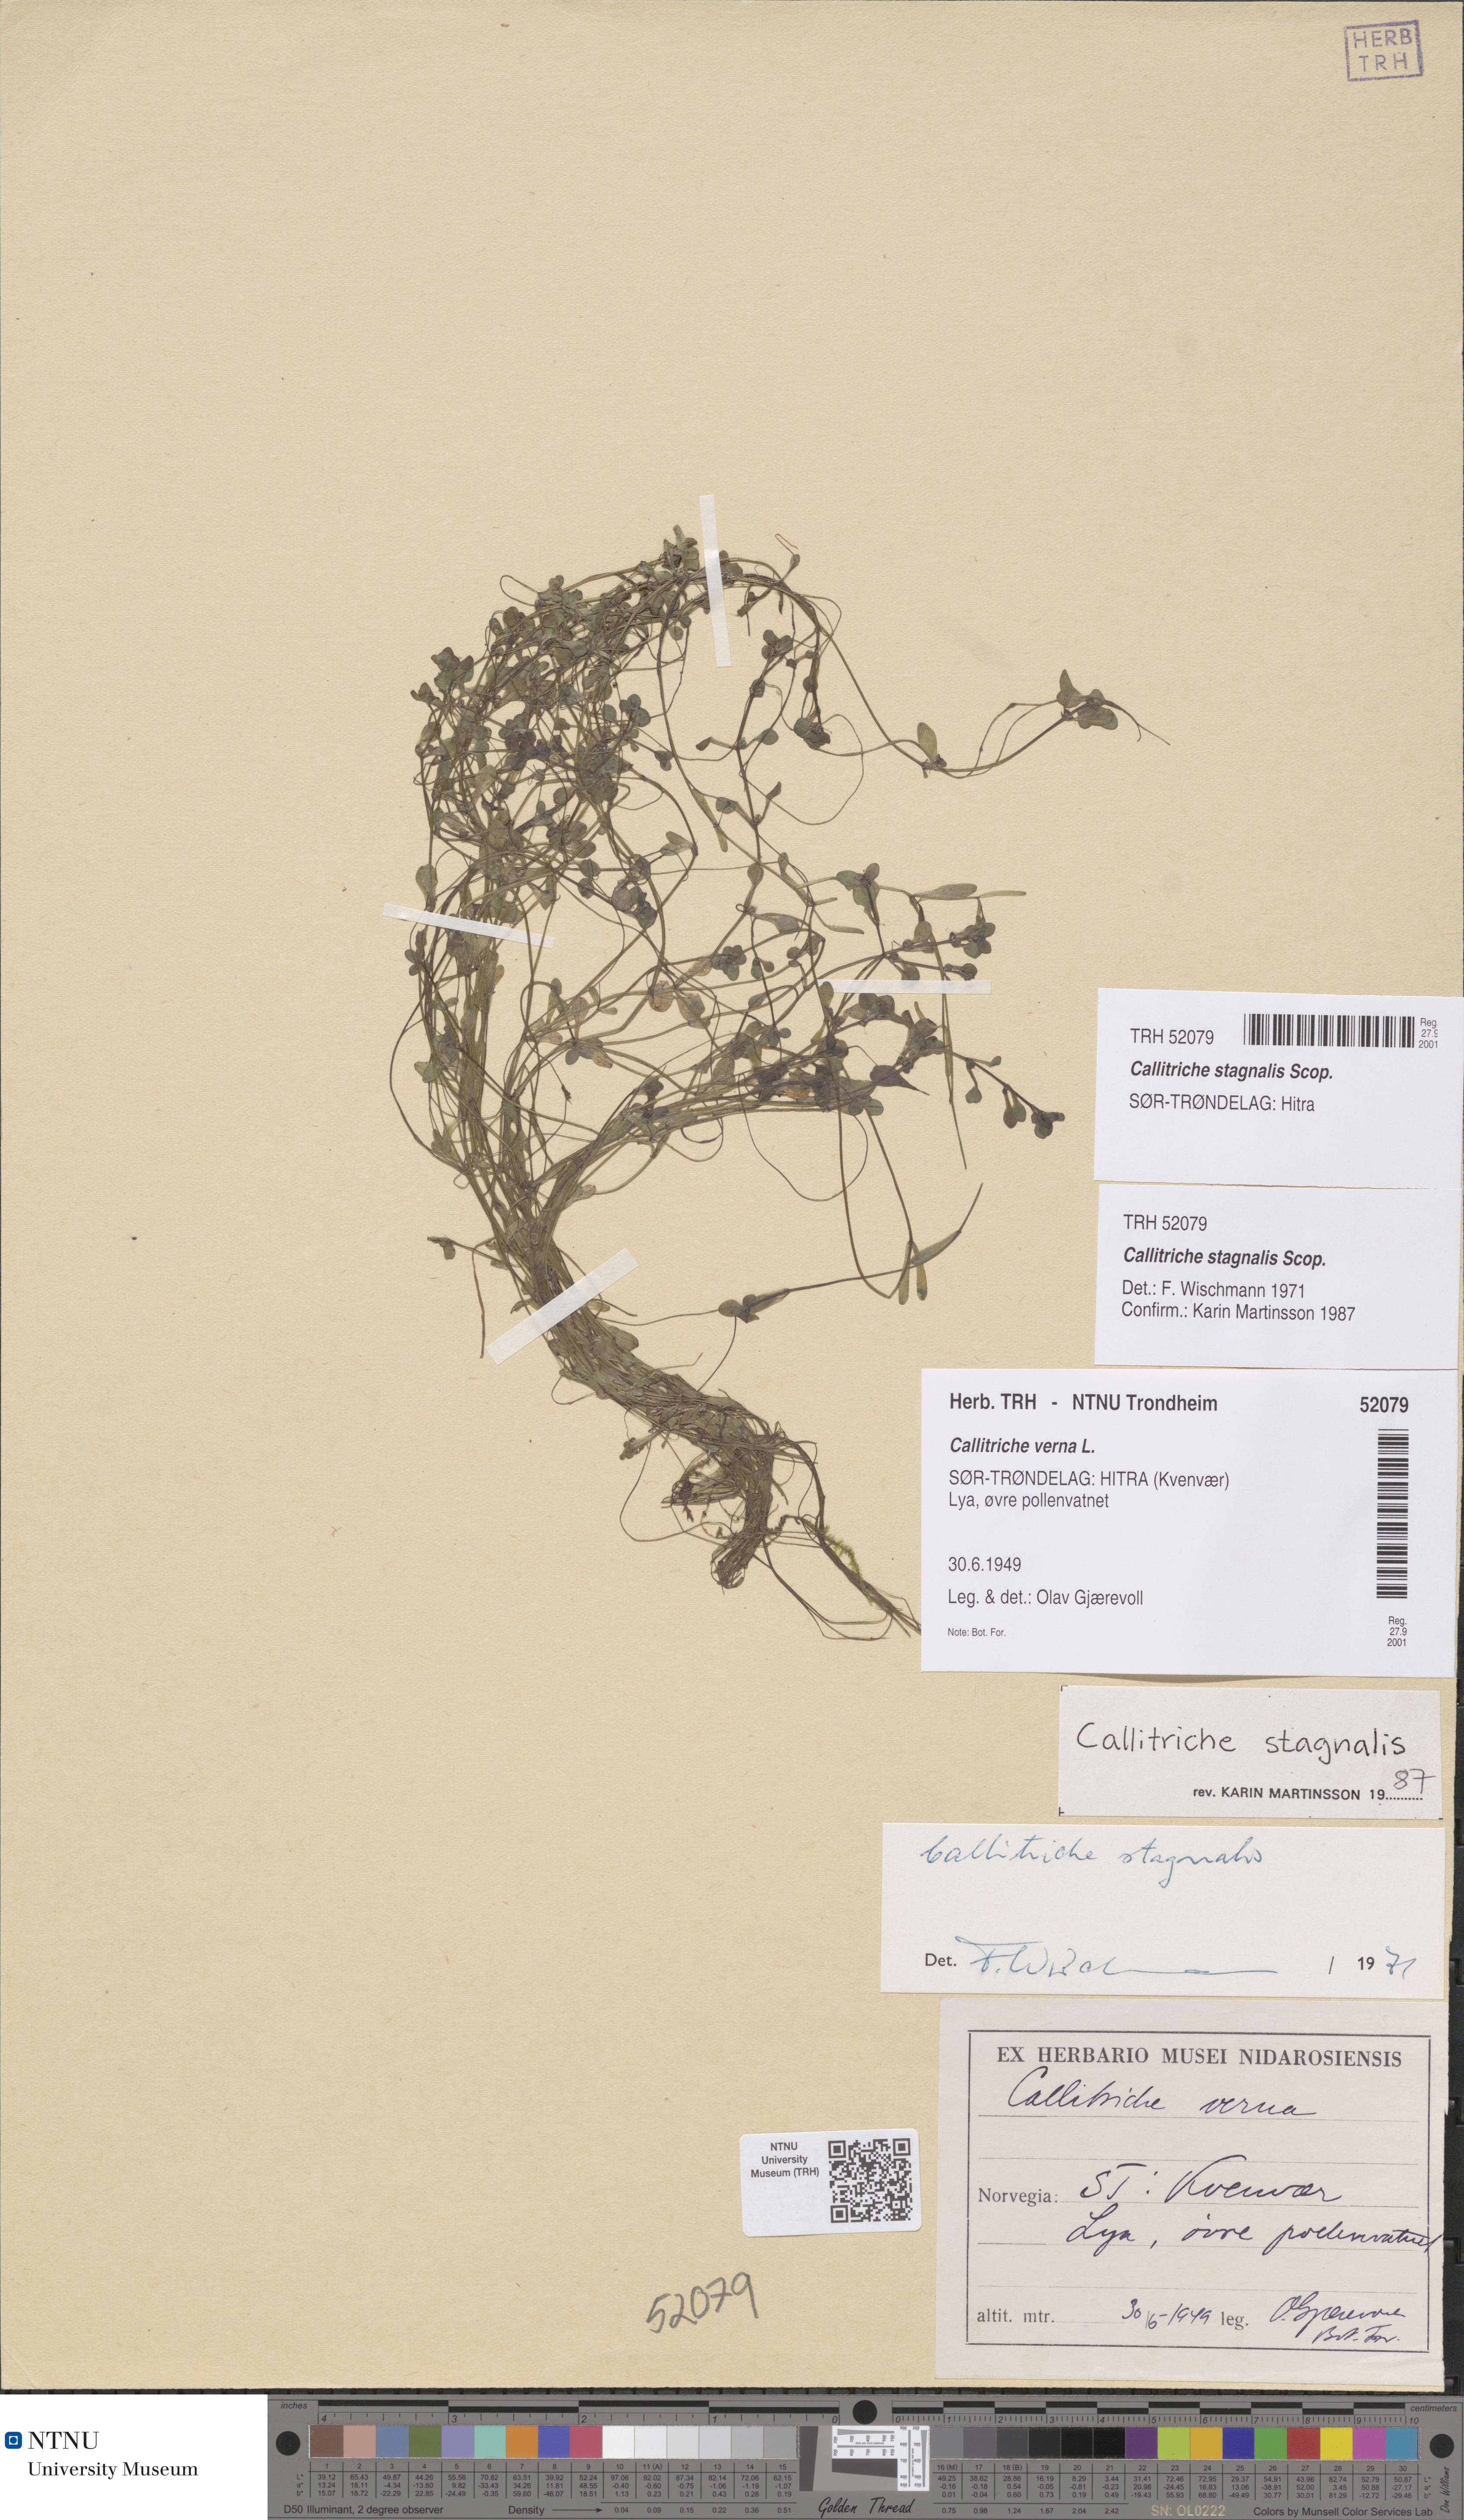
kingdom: Plantae
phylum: Tracheophyta
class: Magnoliopsida
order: Lamiales
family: Plantaginaceae
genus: Callitriche
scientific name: Callitriche stagnalis
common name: Common water-starwort
